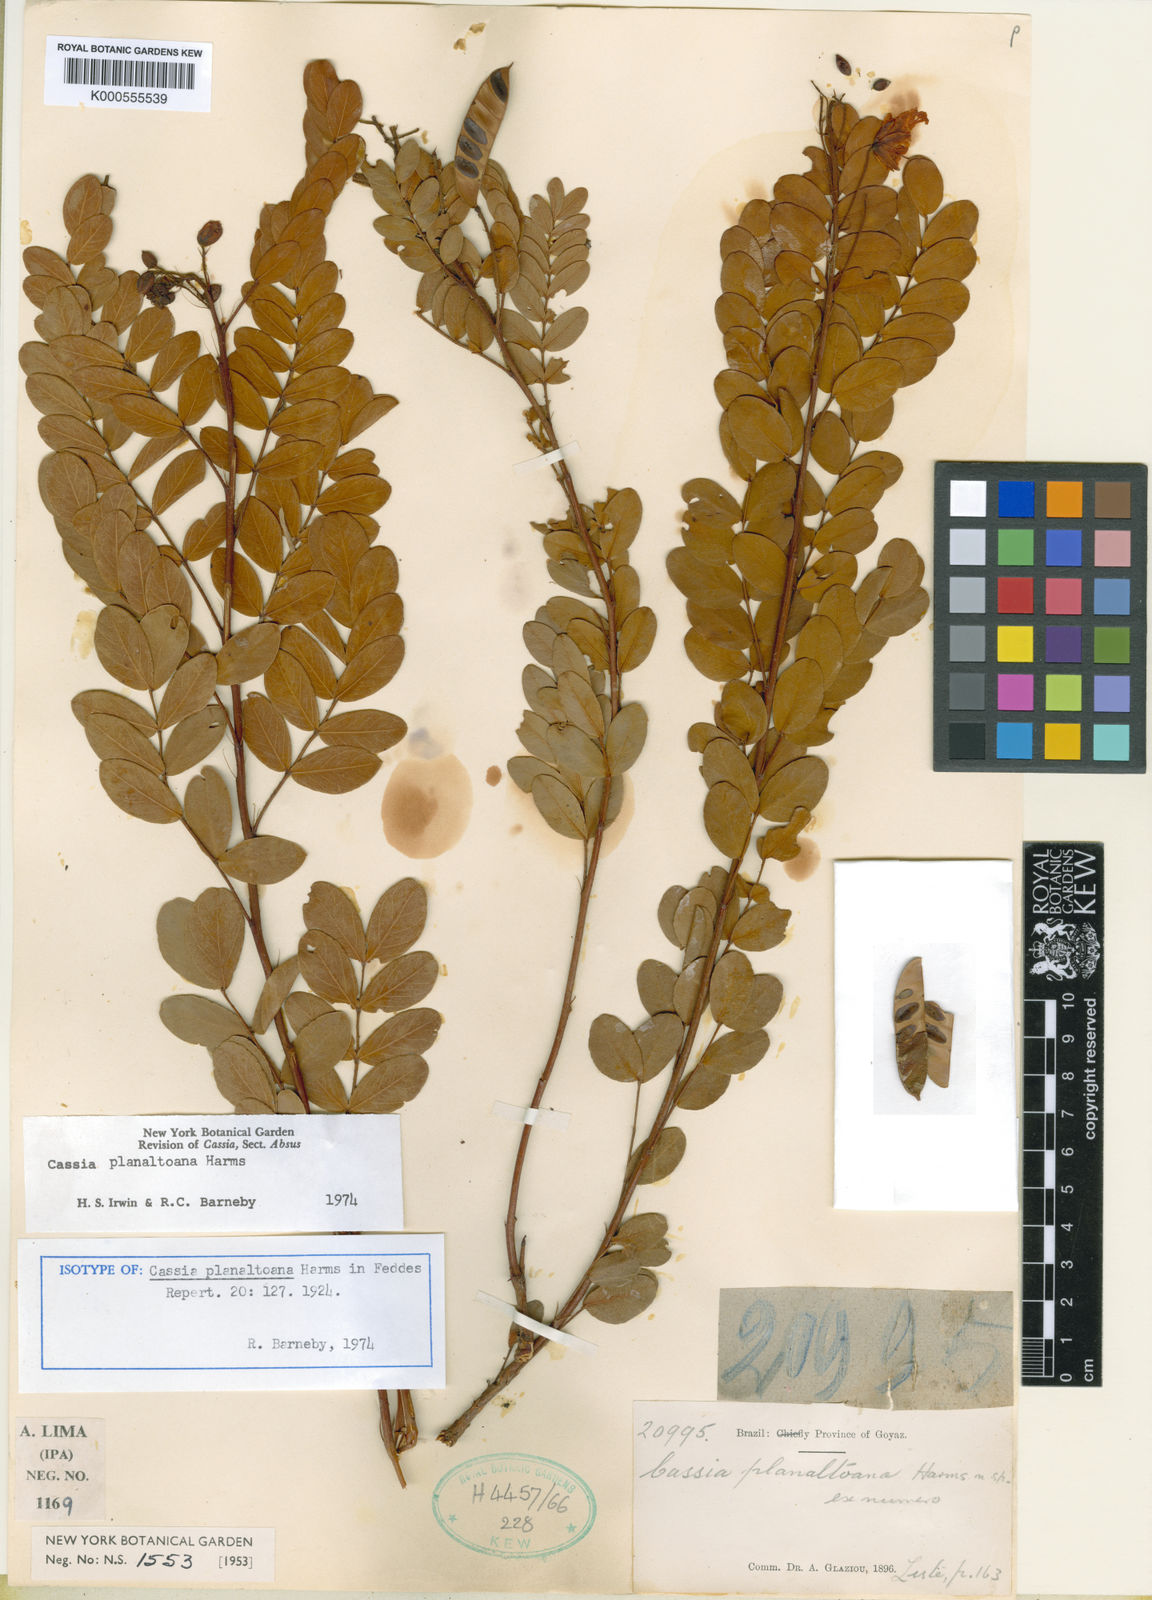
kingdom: Plantae
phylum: Tracheophyta
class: Magnoliopsida
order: Fabales
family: Fabaceae
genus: Chamaecrista
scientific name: Chamaecrista planaltoana
